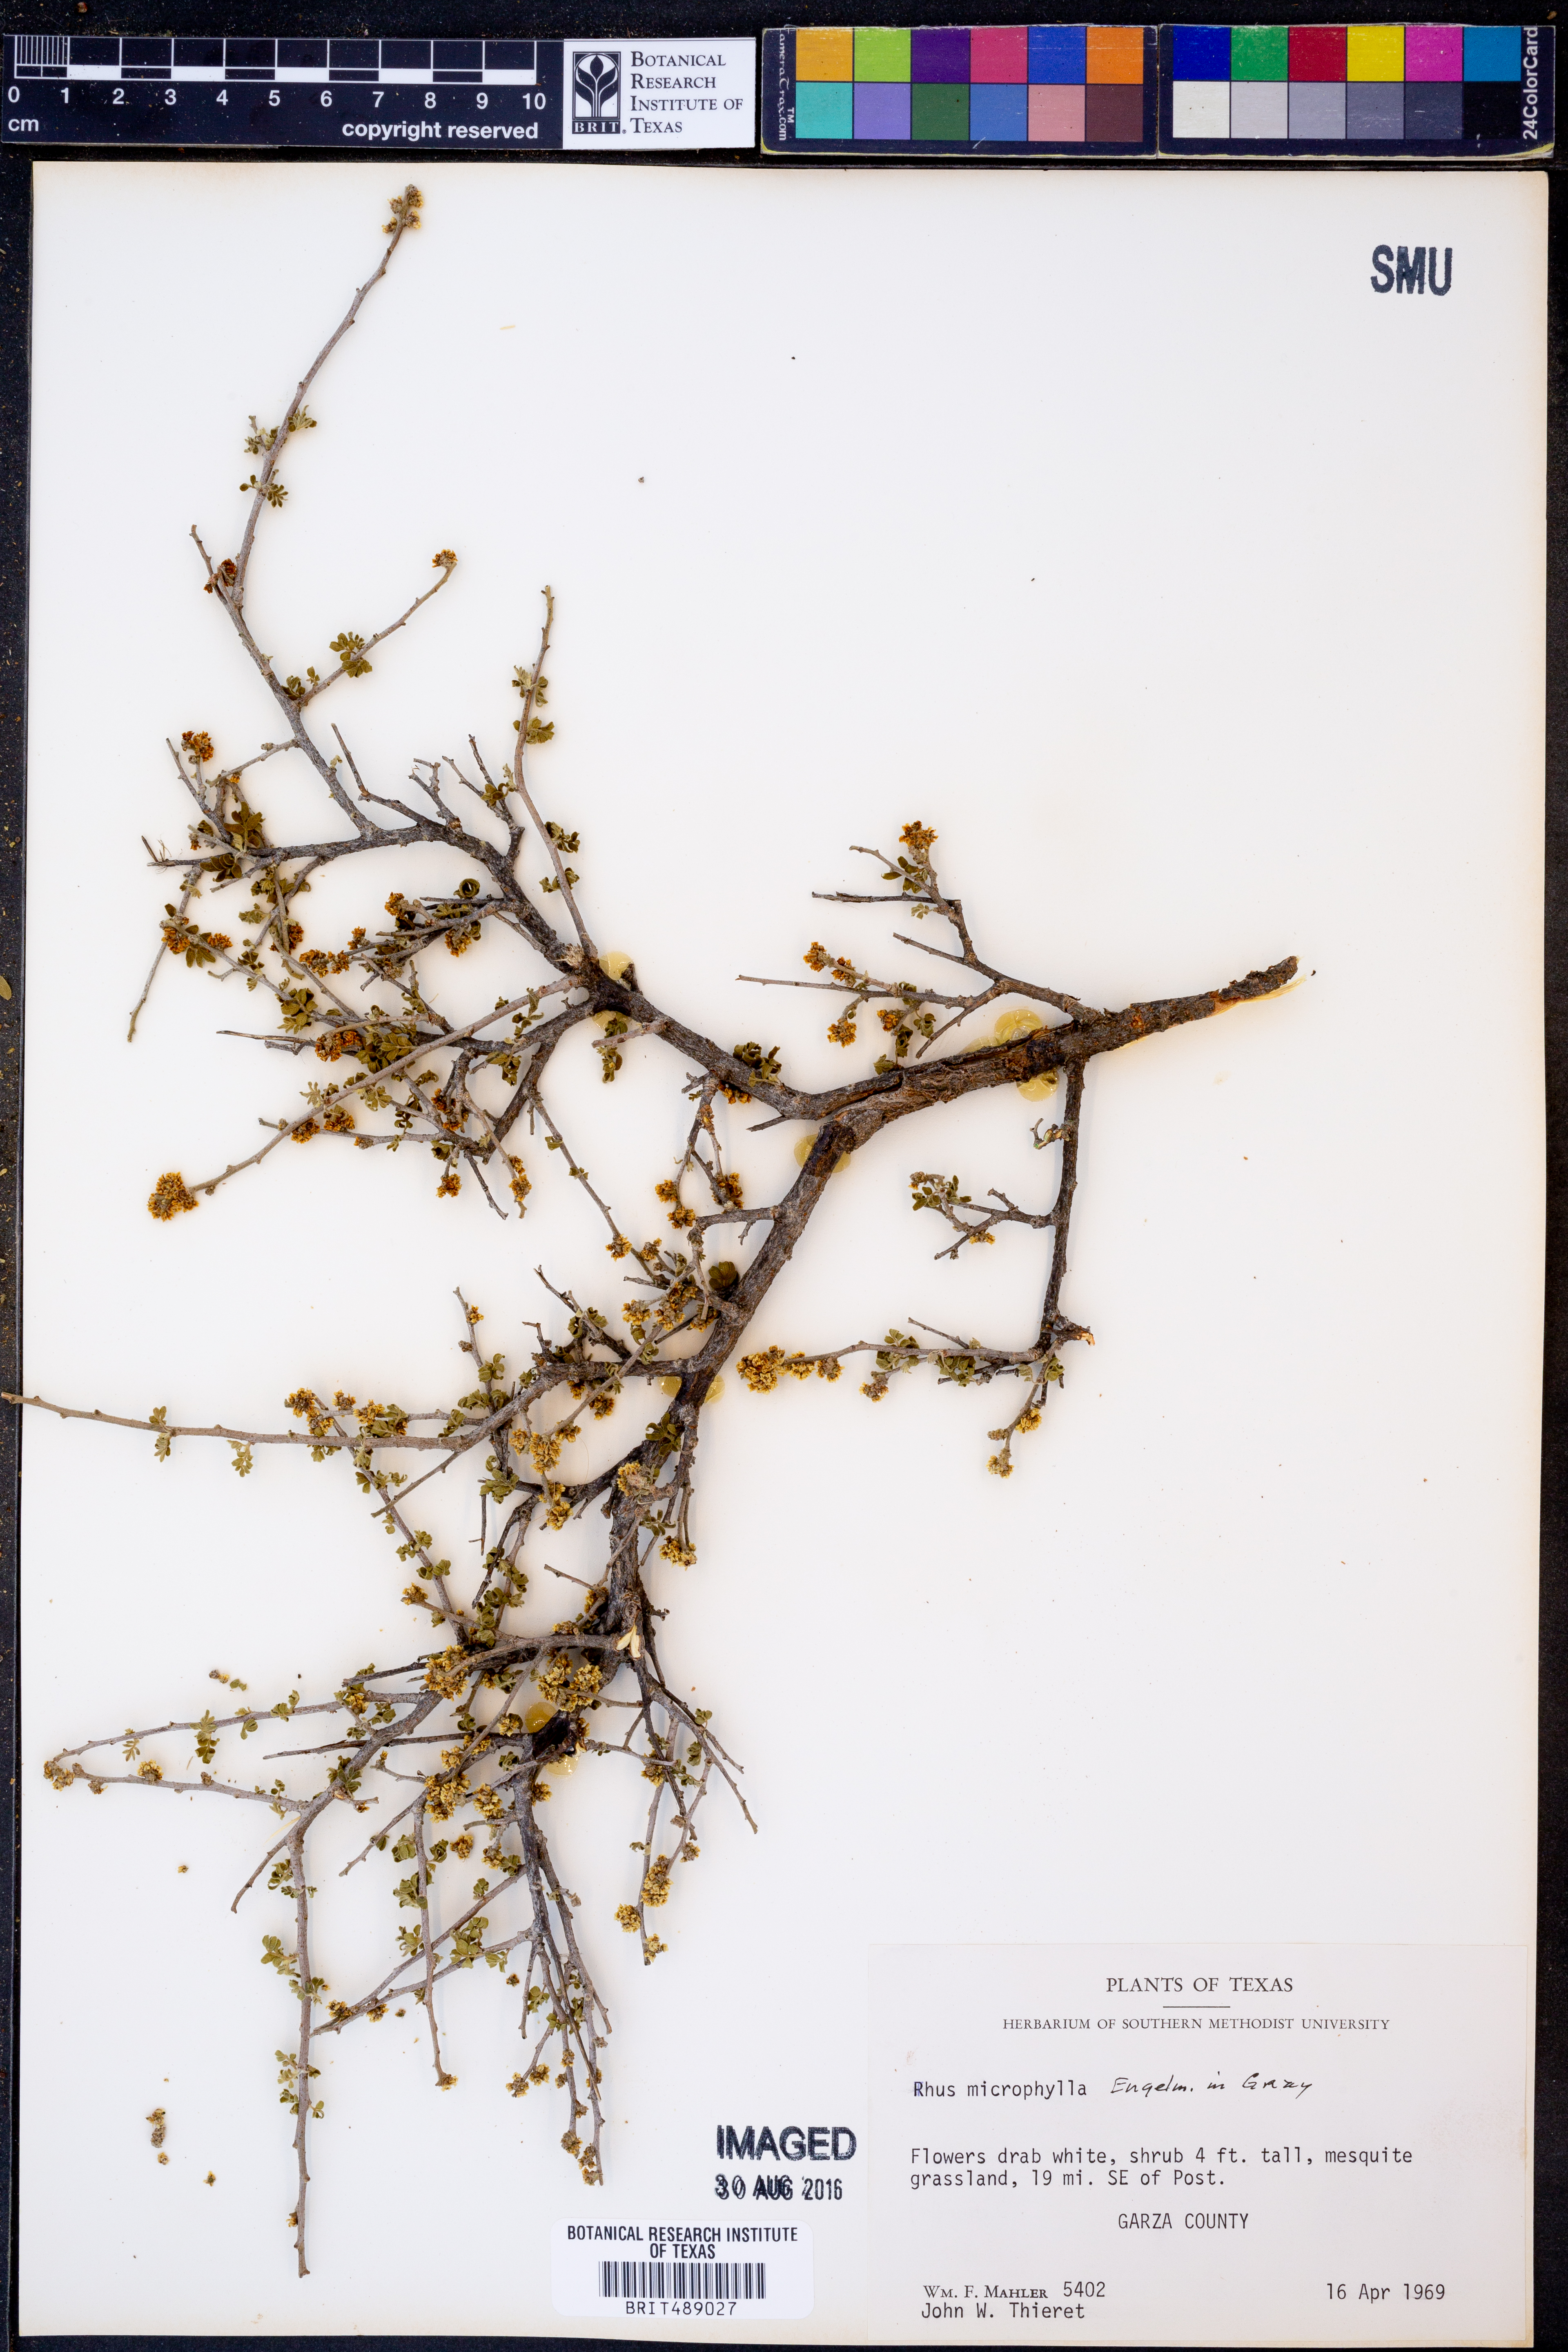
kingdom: Plantae
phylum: Tracheophyta
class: Magnoliopsida
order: Sapindales
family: Anacardiaceae
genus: Rhus
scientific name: Rhus microphylla
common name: Desert sumac
